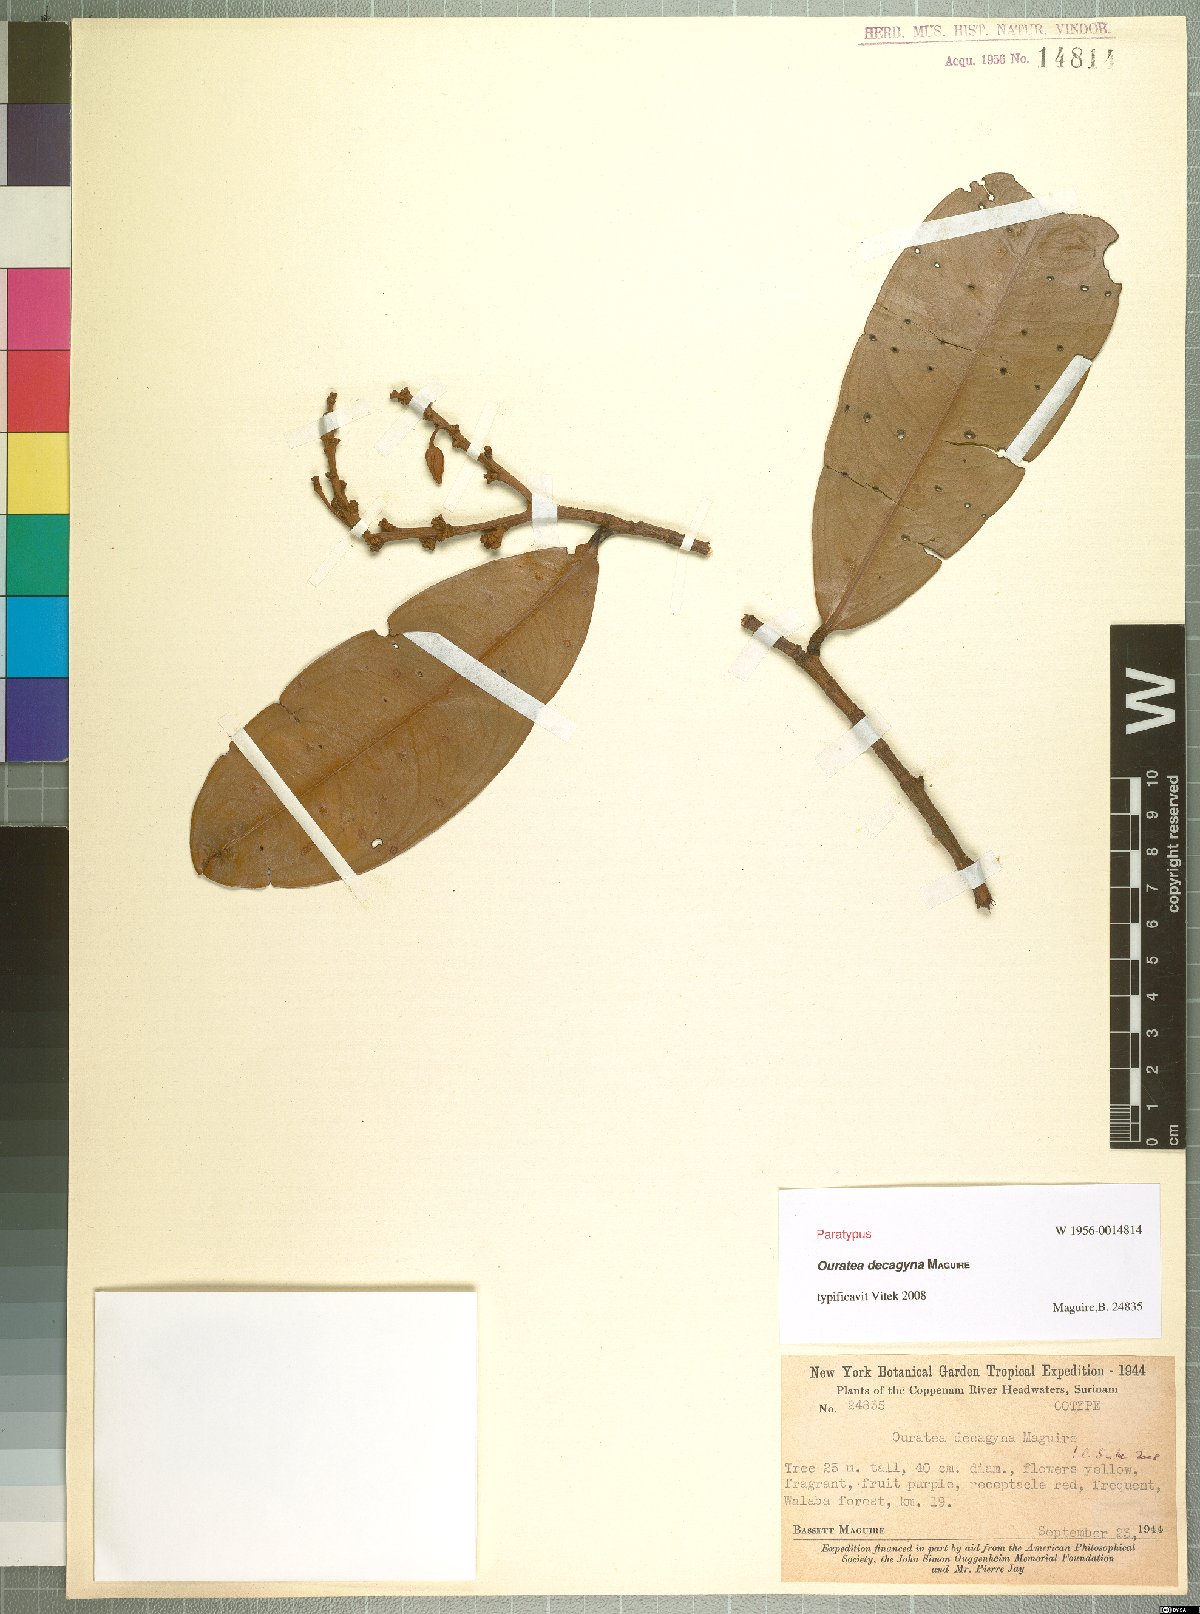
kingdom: Plantae
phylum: Tracheophyta
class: Magnoliopsida
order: Malpighiales
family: Ochnaceae
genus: Ouratea
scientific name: Ouratea decagyna
